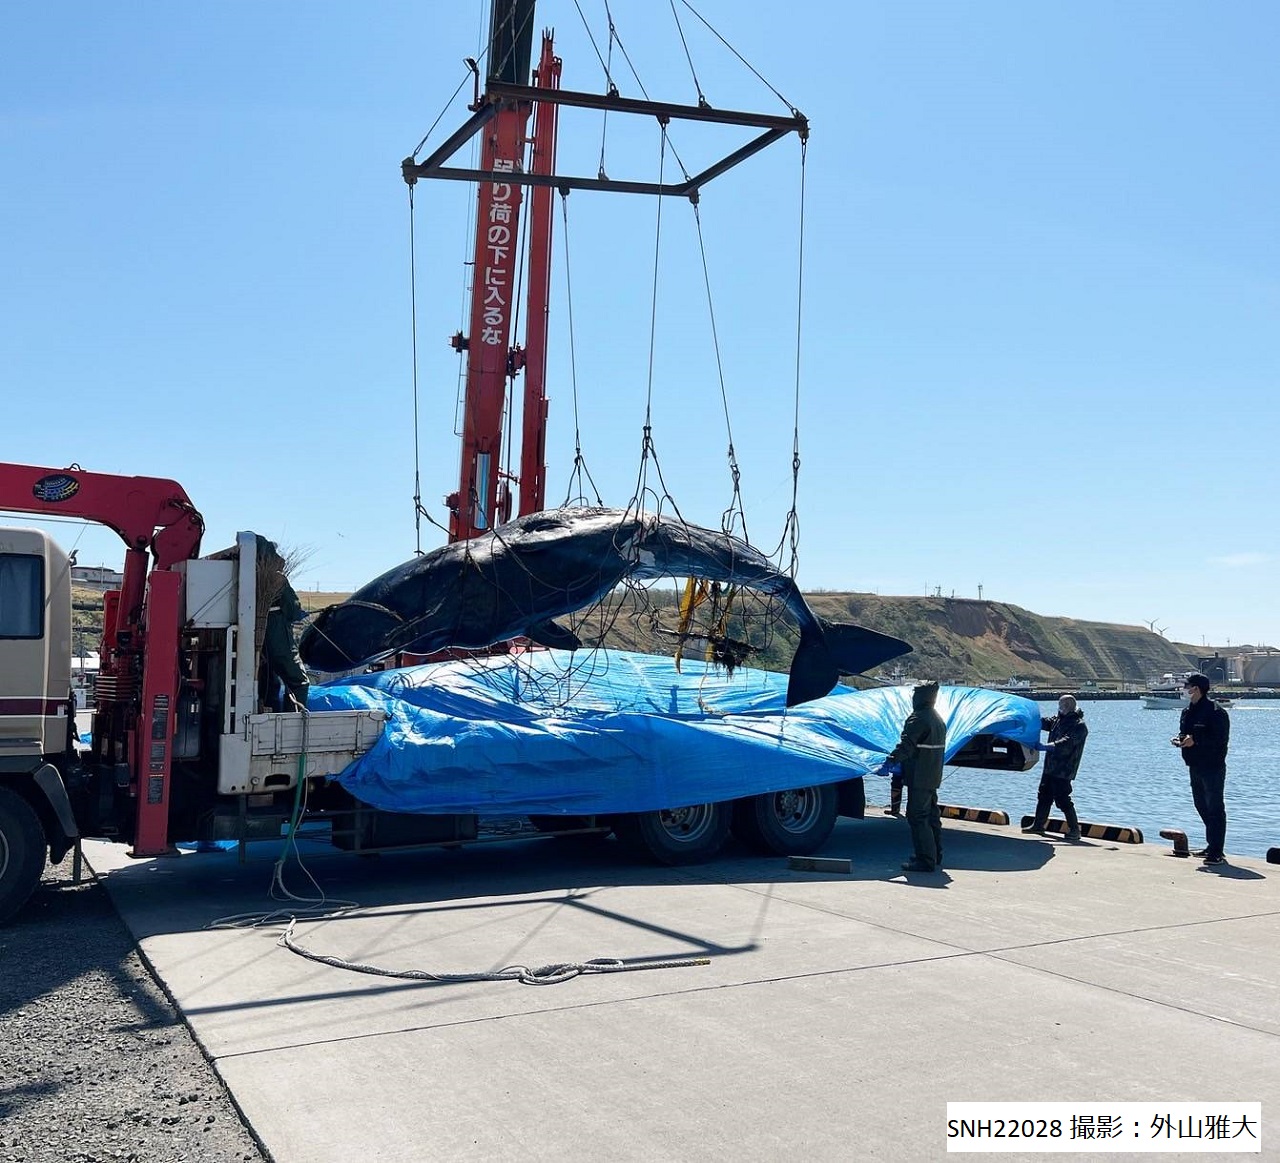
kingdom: Animalia
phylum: Chordata
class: Mammalia
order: Cetacea
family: Physeteridae
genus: Physeter
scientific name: Physeter macrocephalus
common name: Sperm whale
